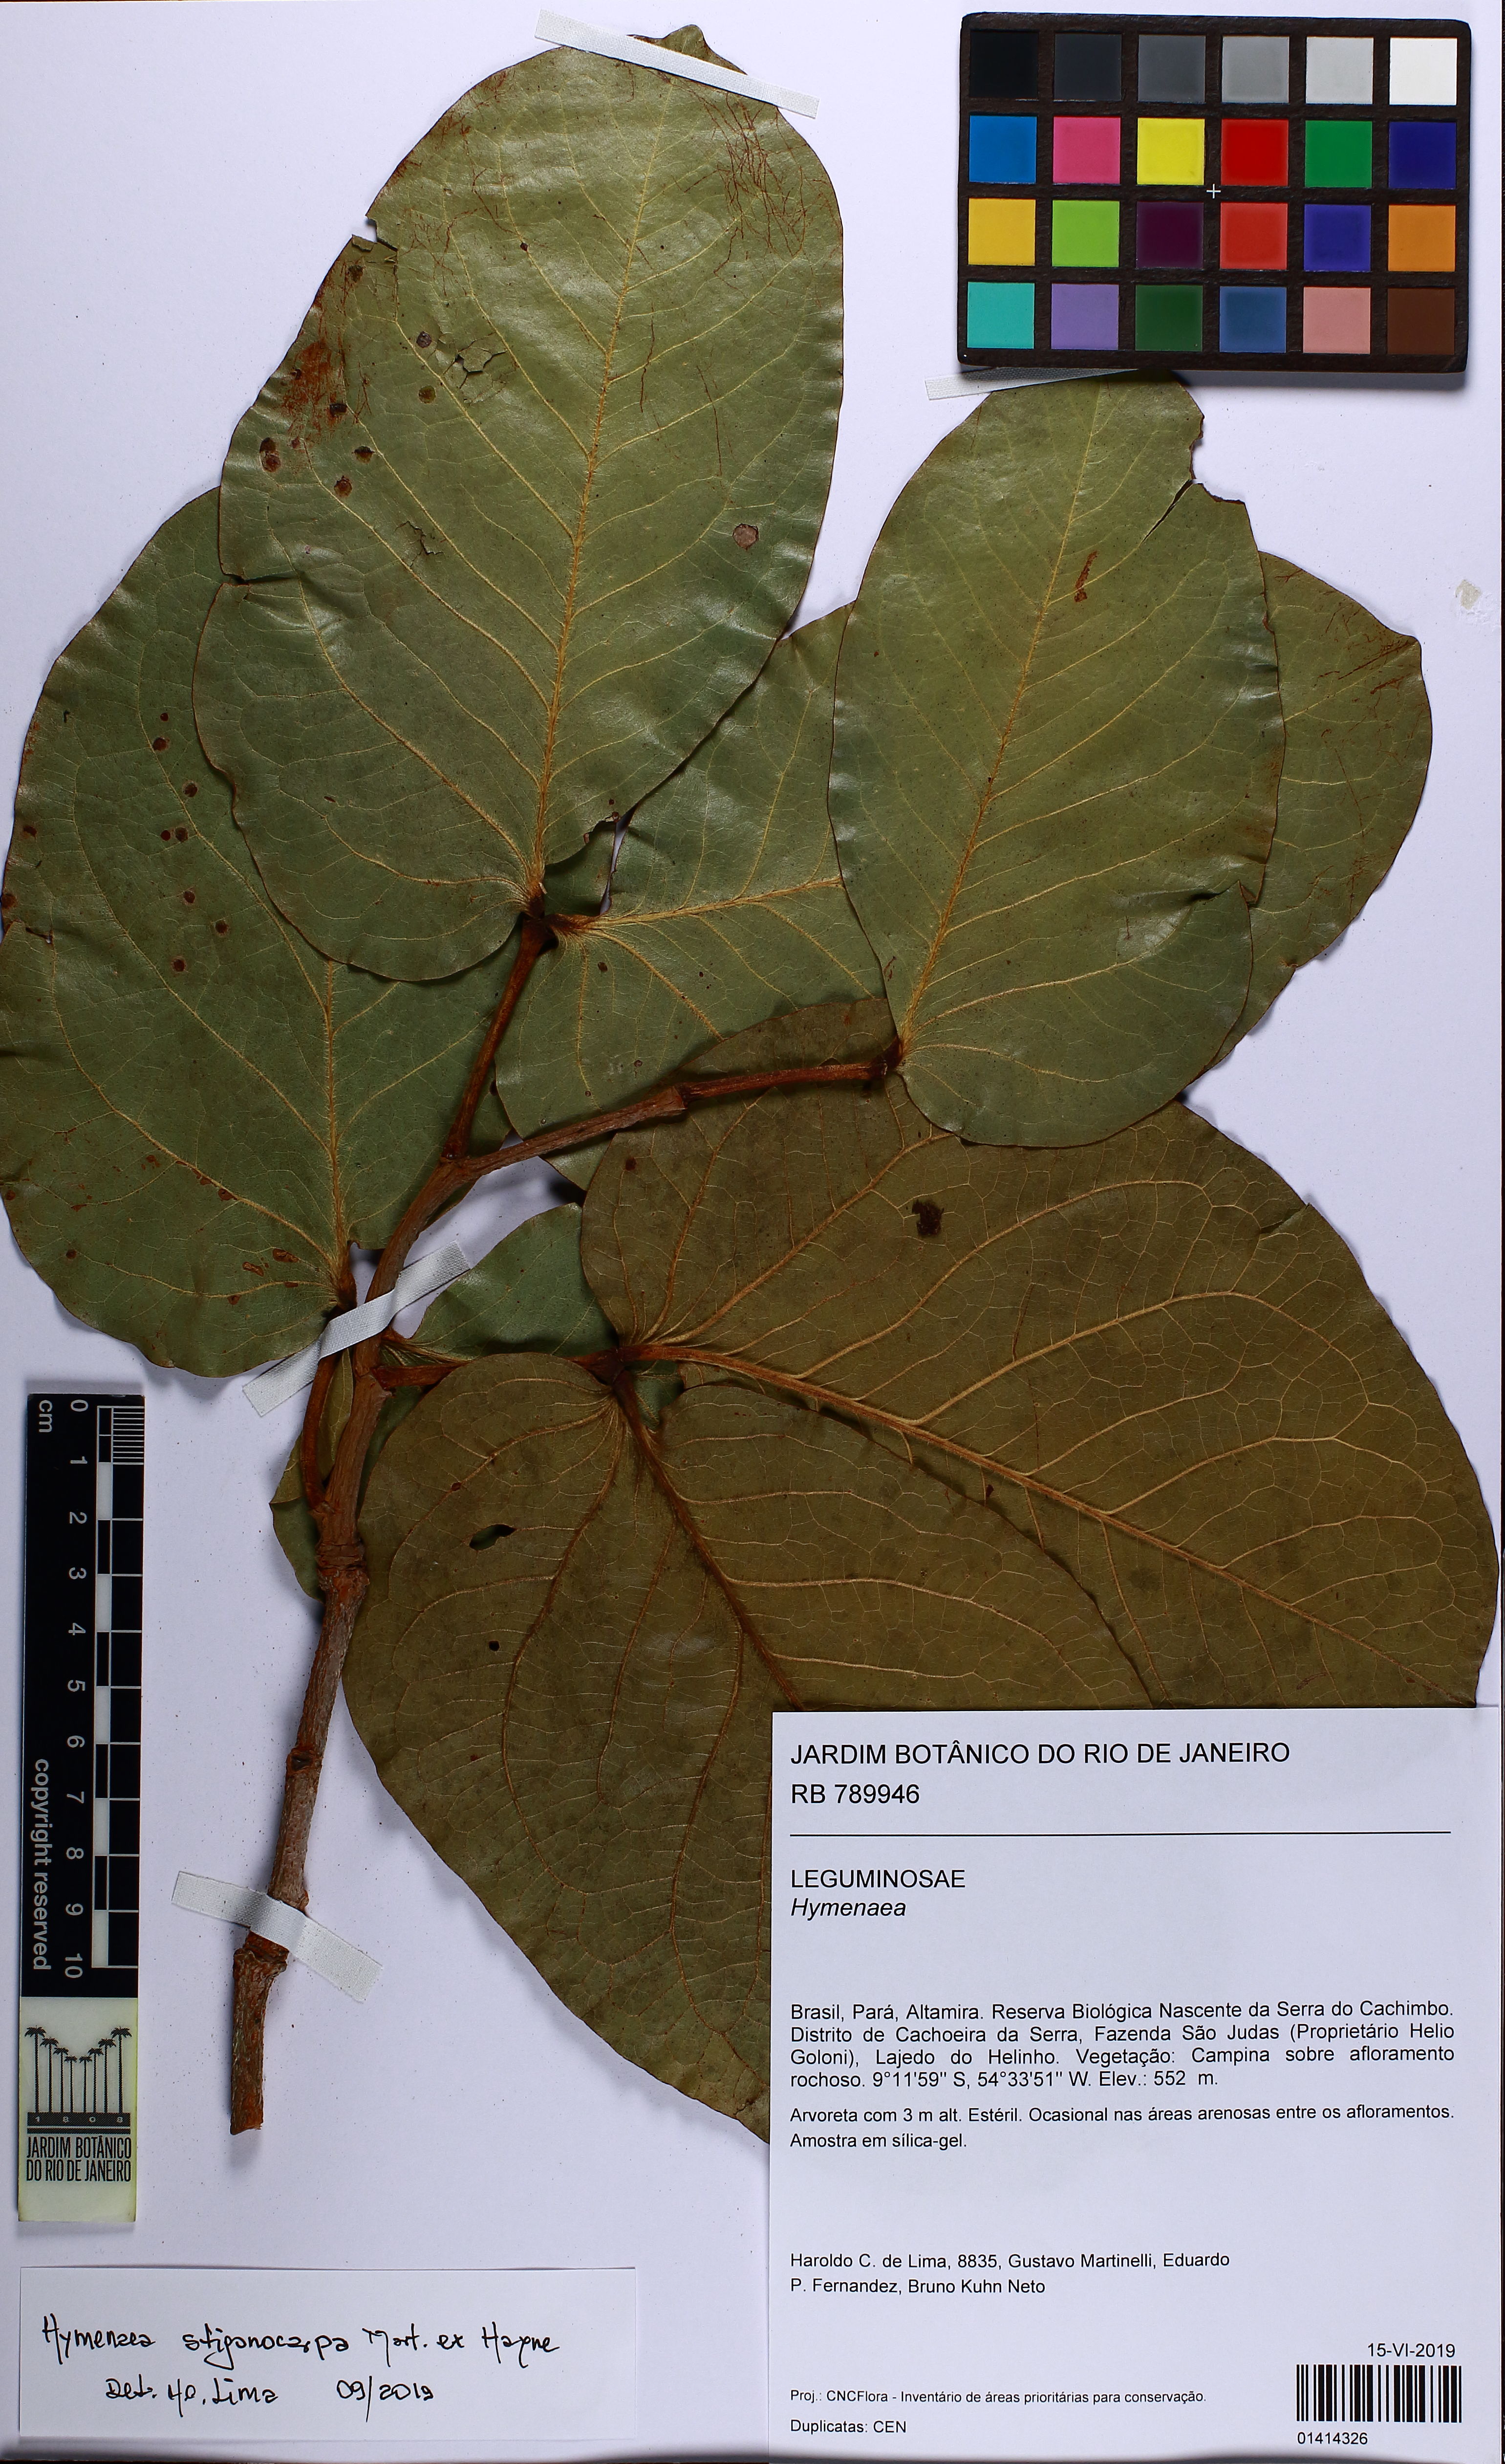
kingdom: Plantae
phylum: Tracheophyta
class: Magnoliopsida
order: Fabales
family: Fabaceae
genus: Hymenaea
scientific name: Hymenaea stigonocarpa
